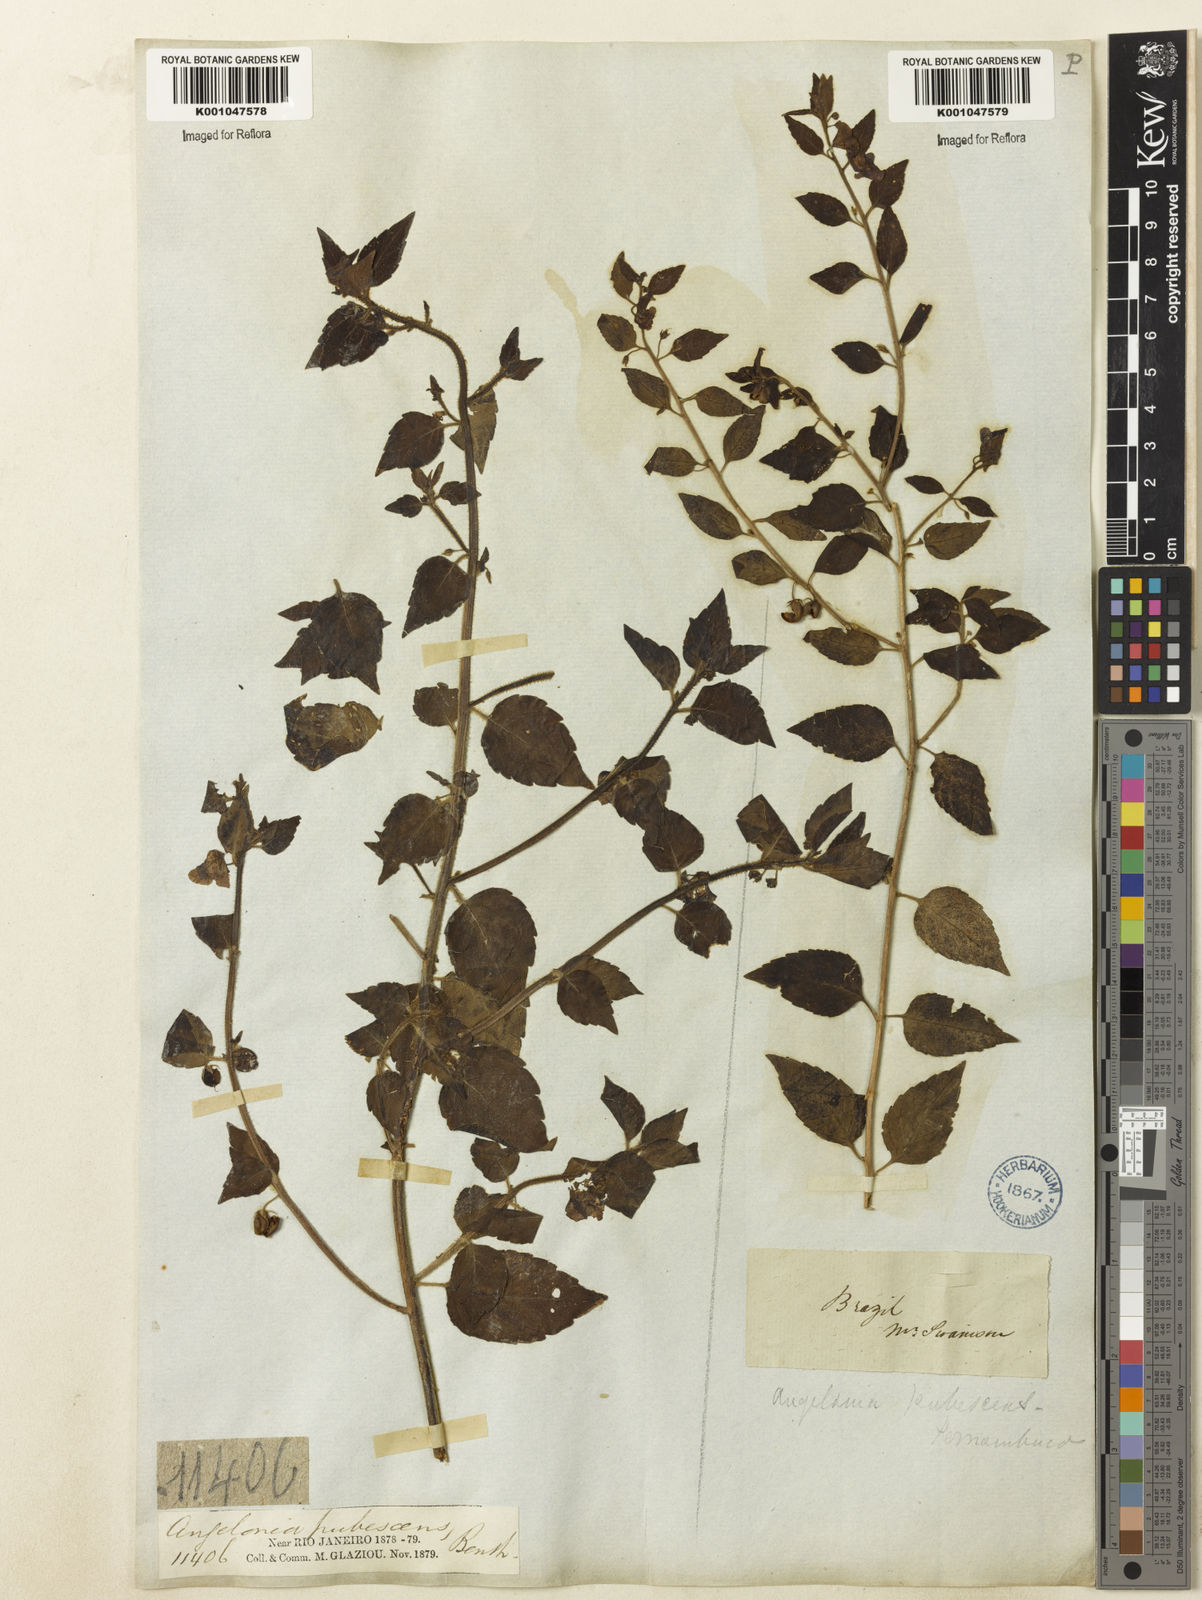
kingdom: Plantae
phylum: Tracheophyta
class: Magnoliopsida
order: Lamiales
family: Plantaginaceae
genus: Angelonia
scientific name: Angelonia pubescens
